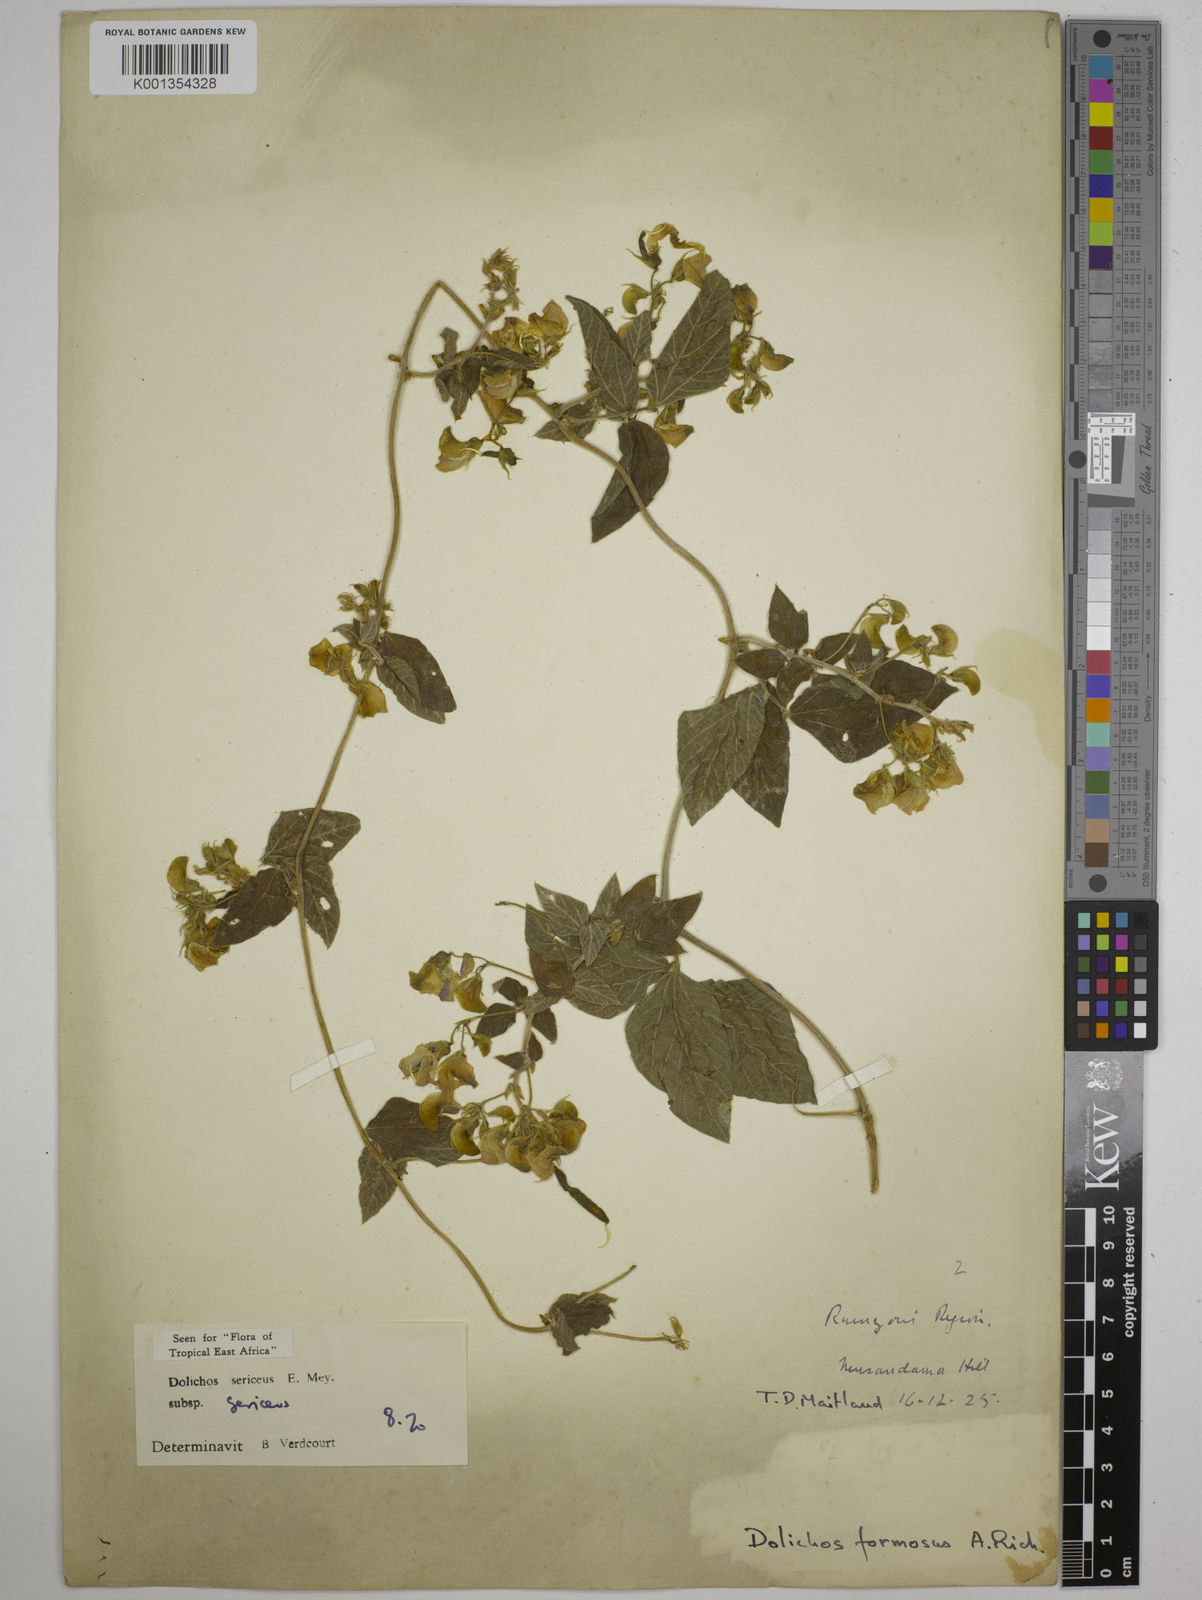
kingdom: Plantae
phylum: Tracheophyta
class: Magnoliopsida
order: Fabales
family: Fabaceae
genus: Dolichos
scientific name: Dolichos sericeus
